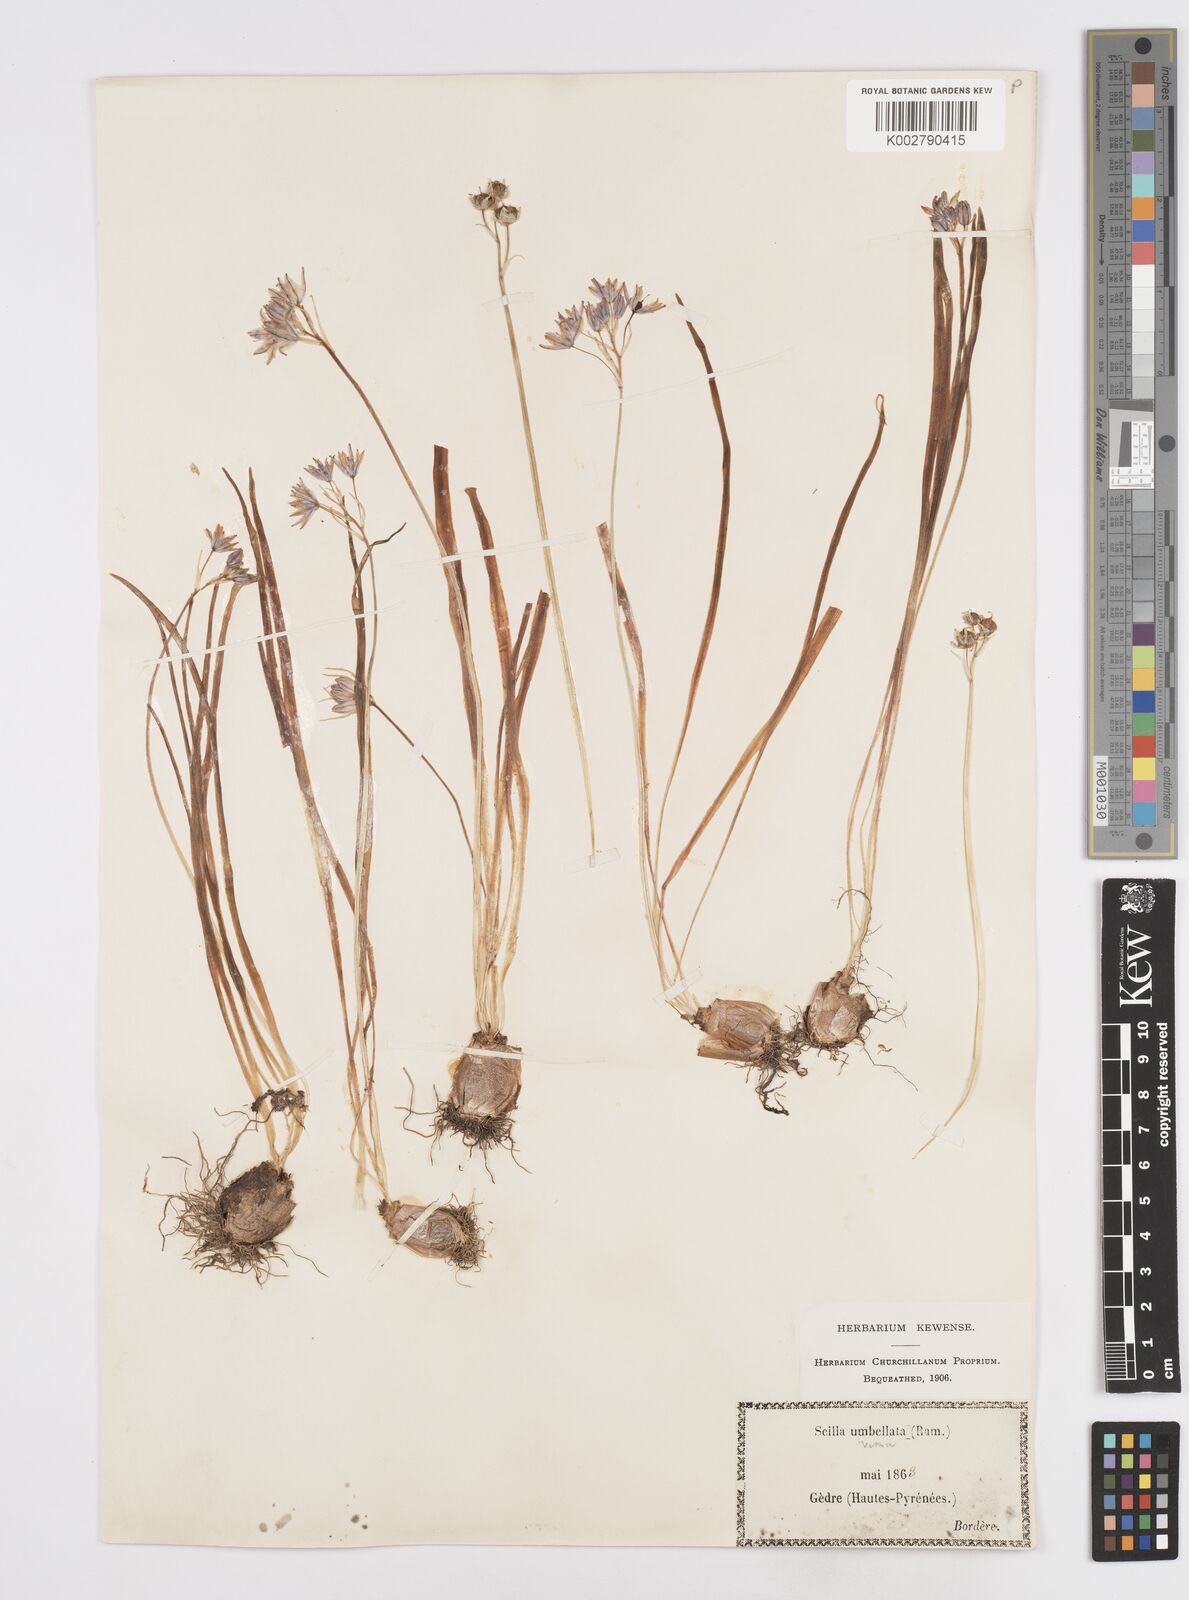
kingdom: Plantae
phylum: Tracheophyta
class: Liliopsida
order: Asparagales
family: Asparagaceae
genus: Scilla
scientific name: Scilla verna
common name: Spring squill
